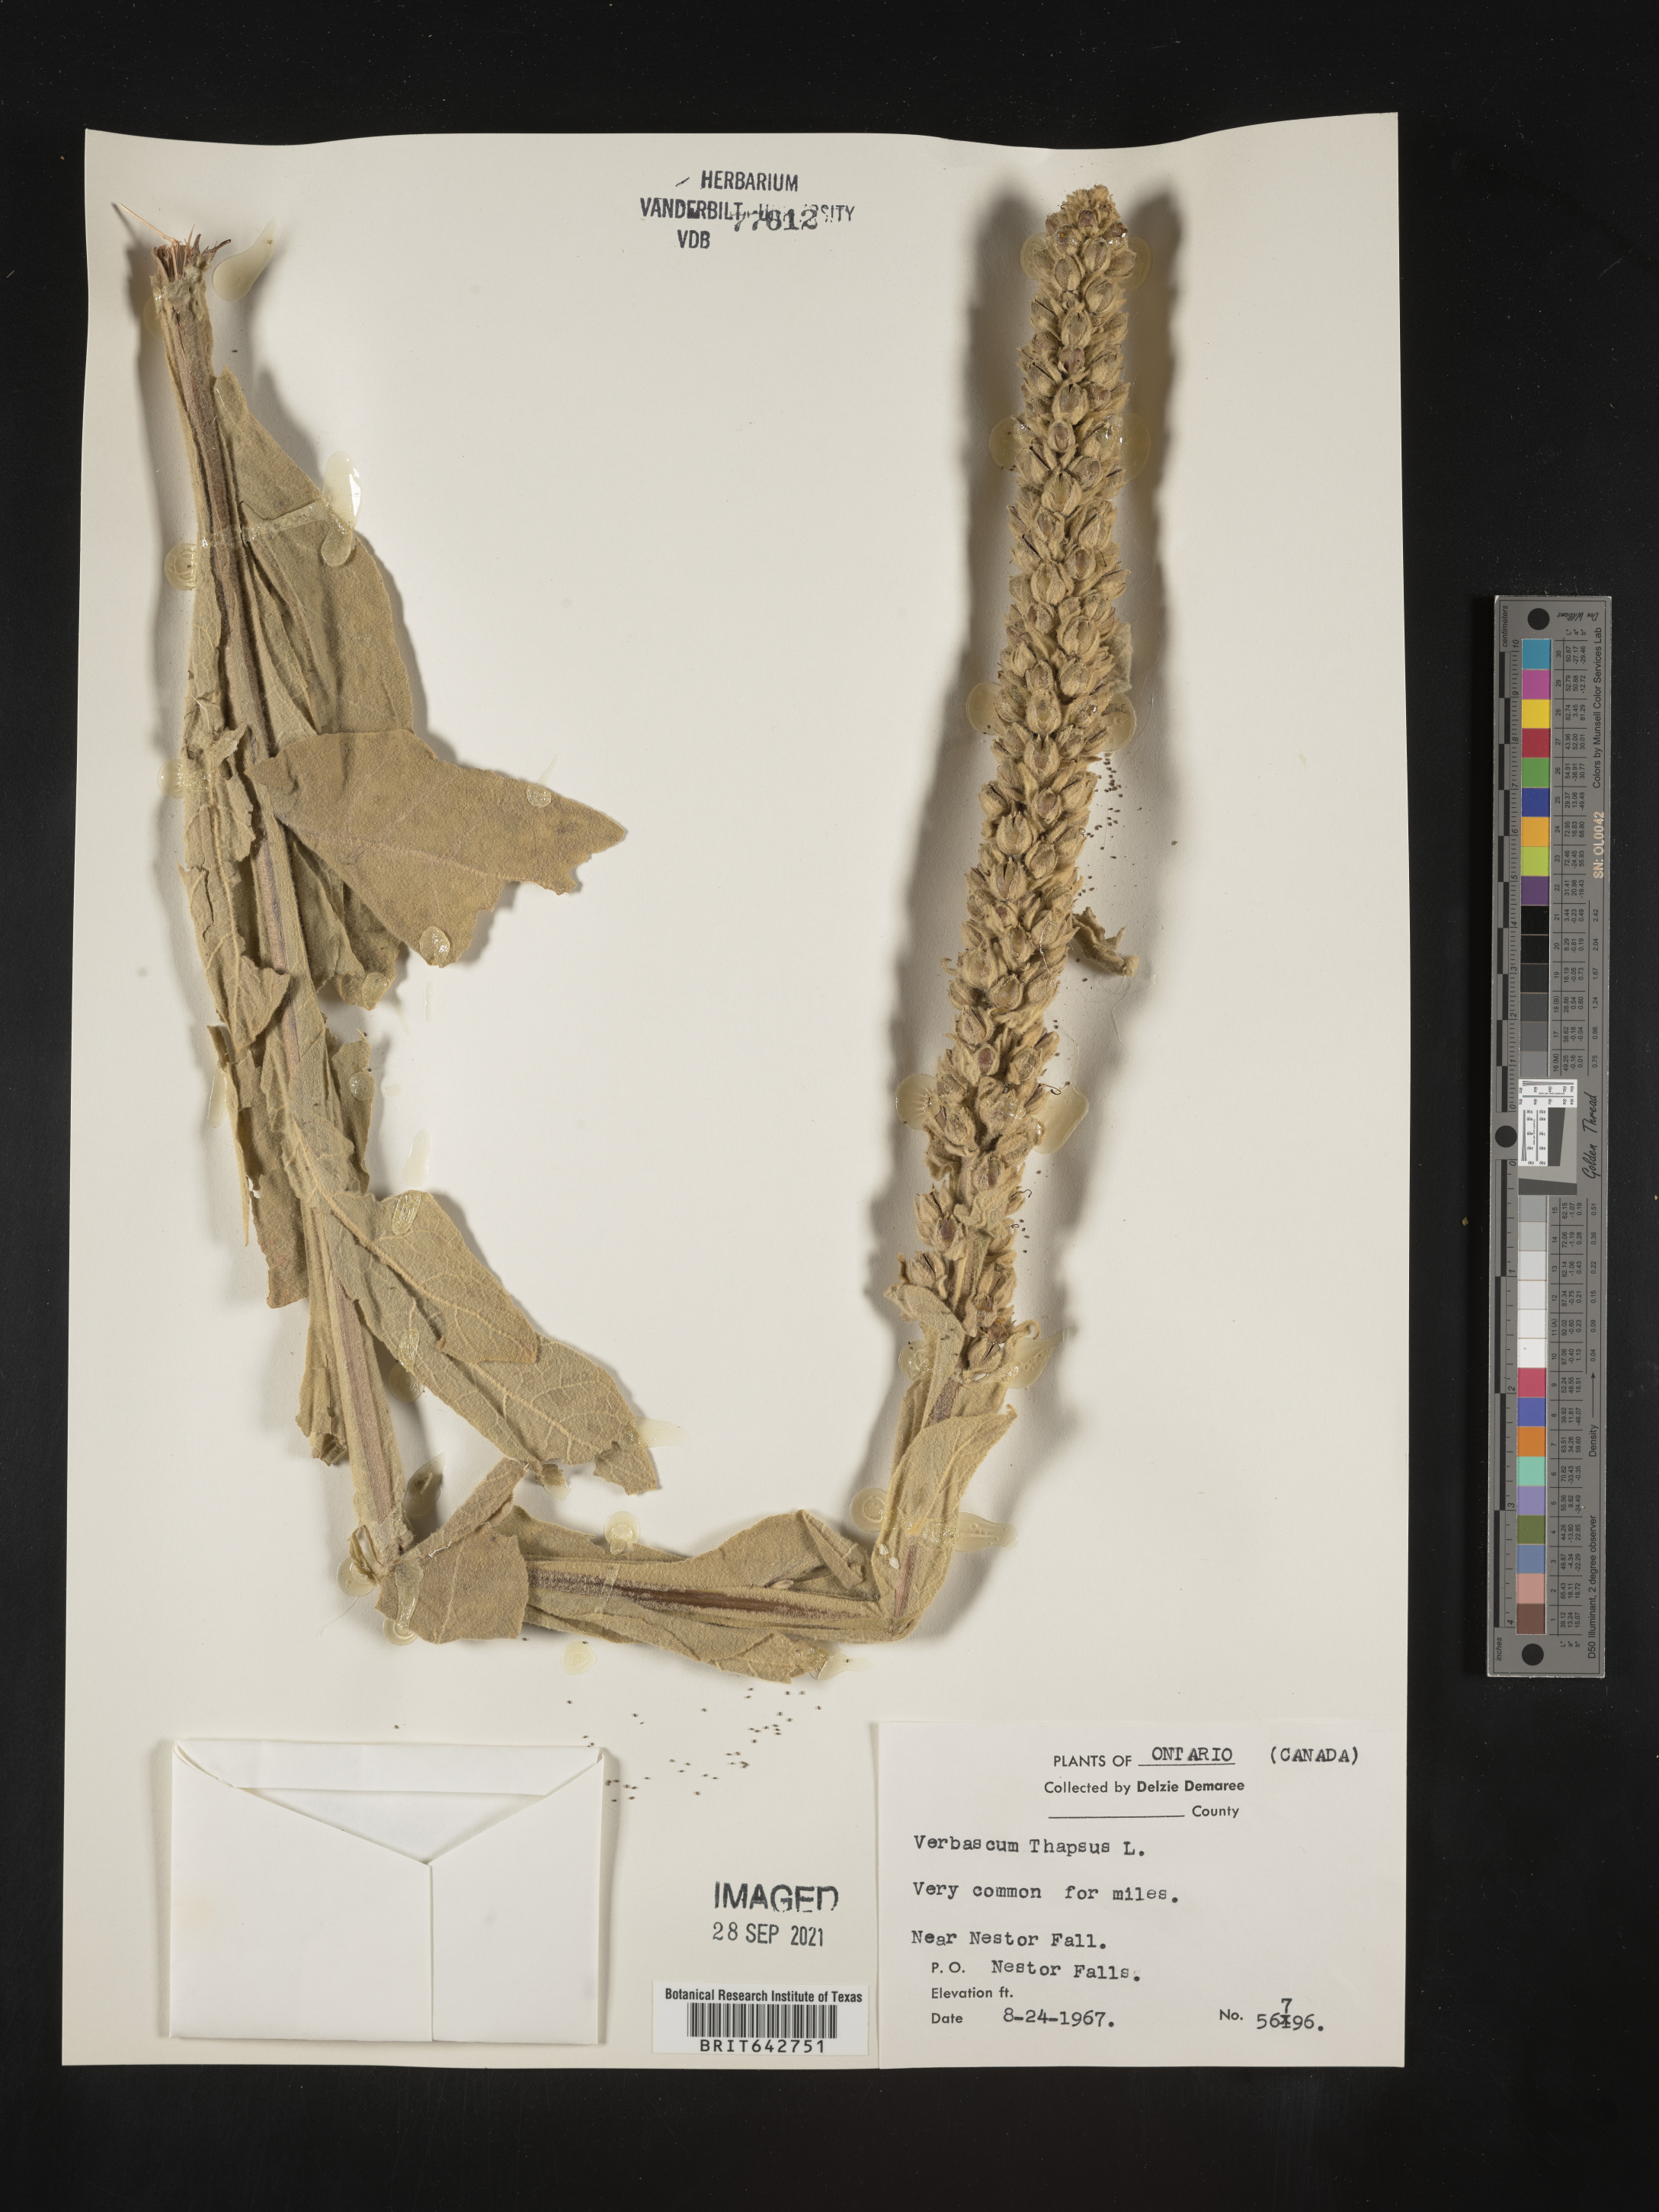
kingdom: Plantae
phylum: Tracheophyta
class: Magnoliopsida
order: Lamiales
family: Scrophulariaceae
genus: Verbascum
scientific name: Verbascum
